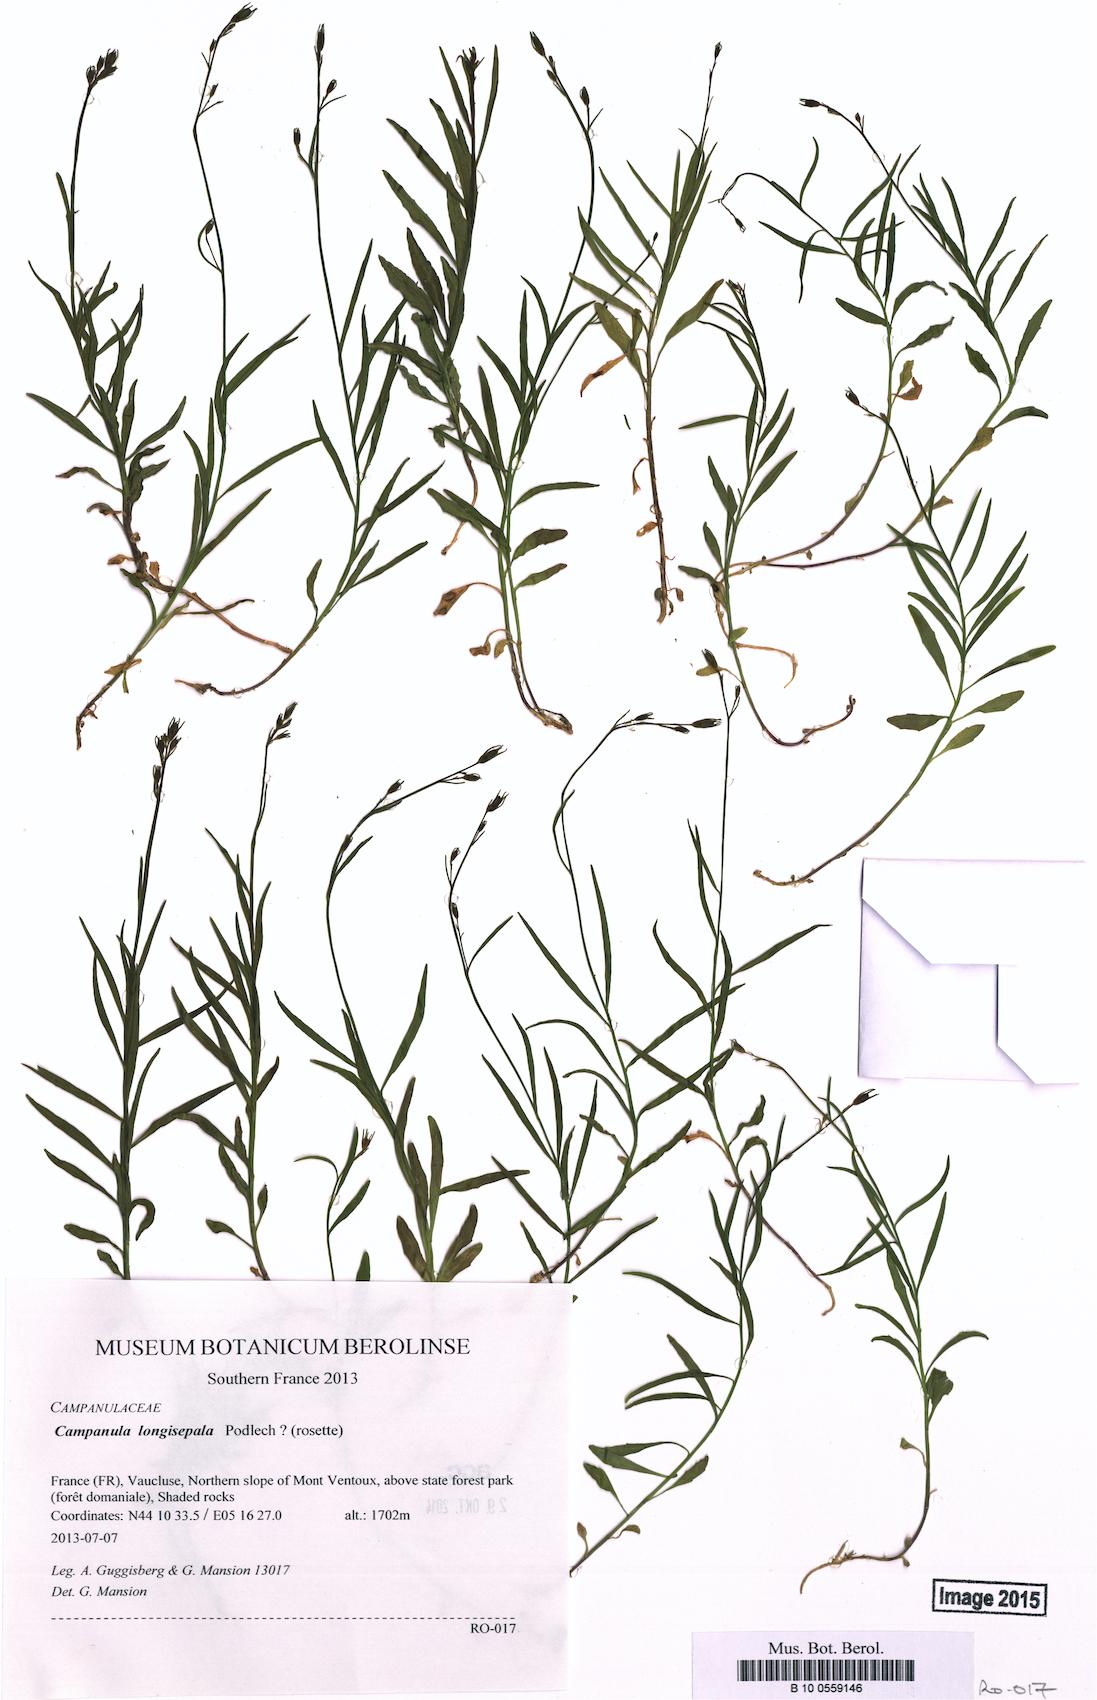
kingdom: Plantae
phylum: Tracheophyta
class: Magnoliopsida
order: Asterales
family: Campanulaceae
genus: Campanula
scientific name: Campanula longisepala
